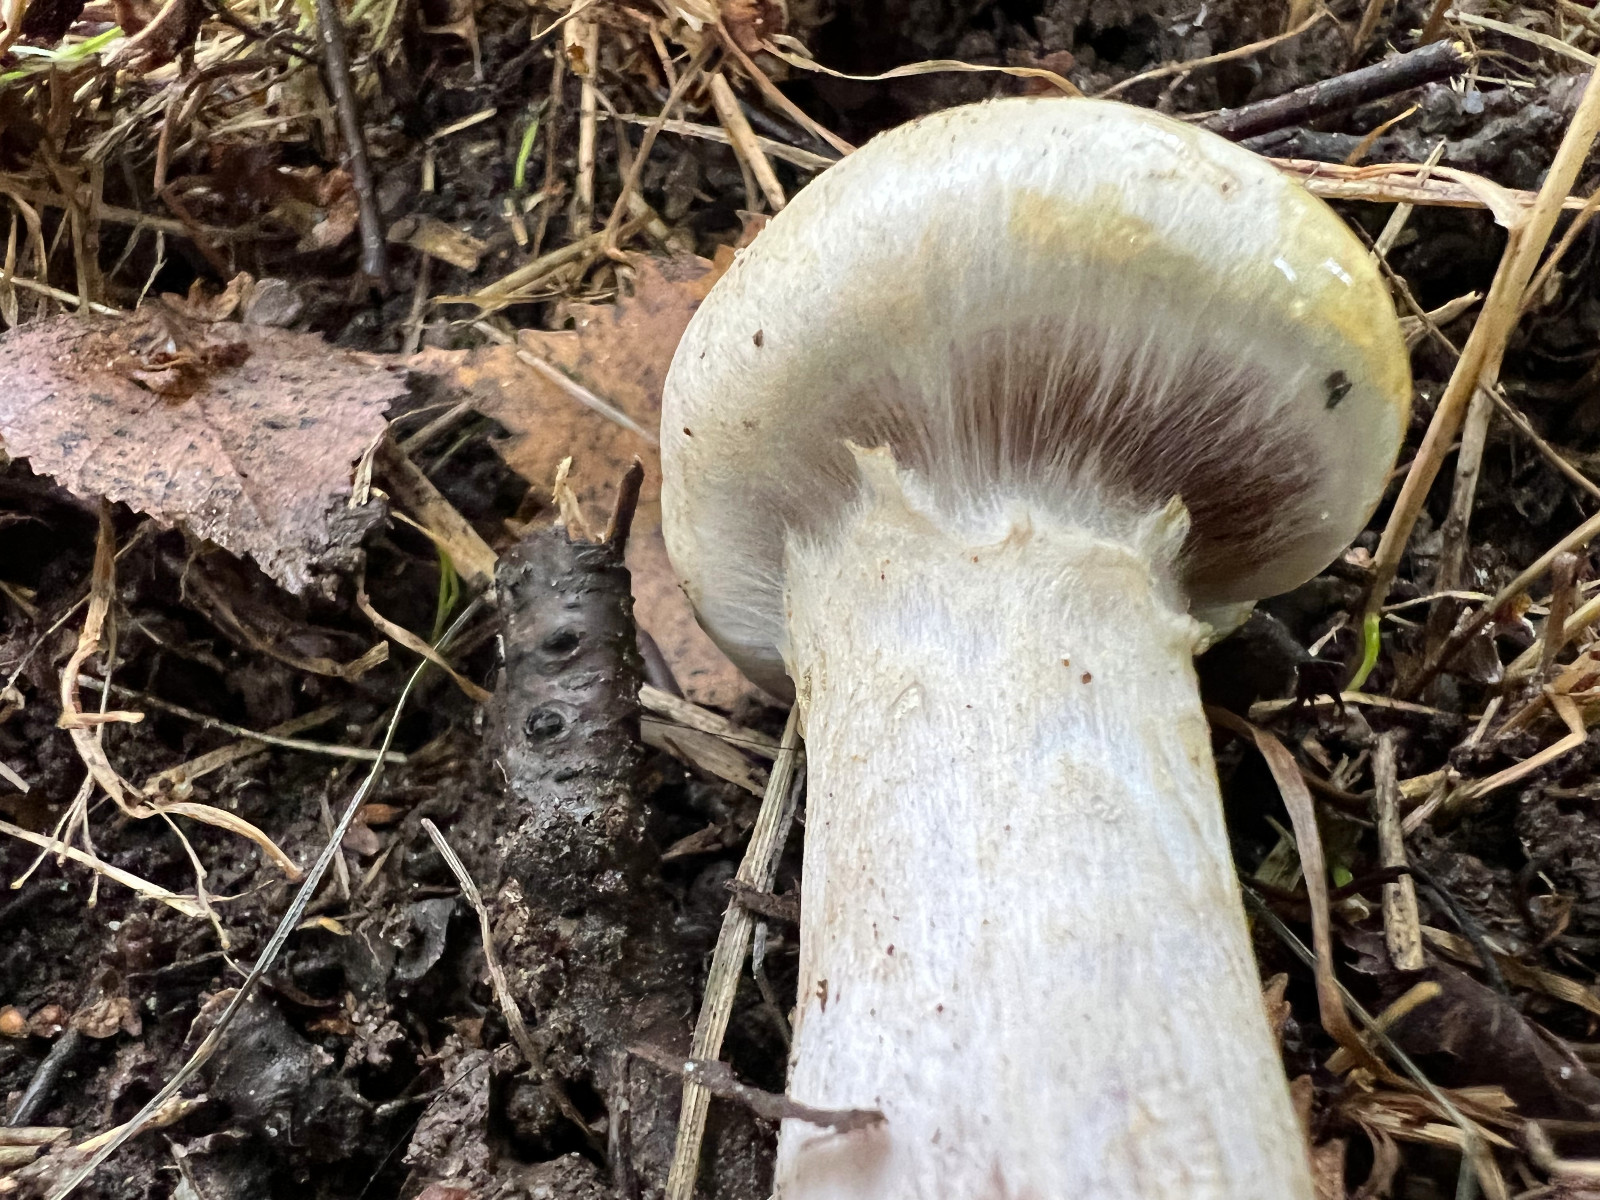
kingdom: Fungi
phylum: Basidiomycota
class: Agaricomycetes
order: Agaricales
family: Cortinariaceae
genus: Cortinarius
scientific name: Cortinarius
